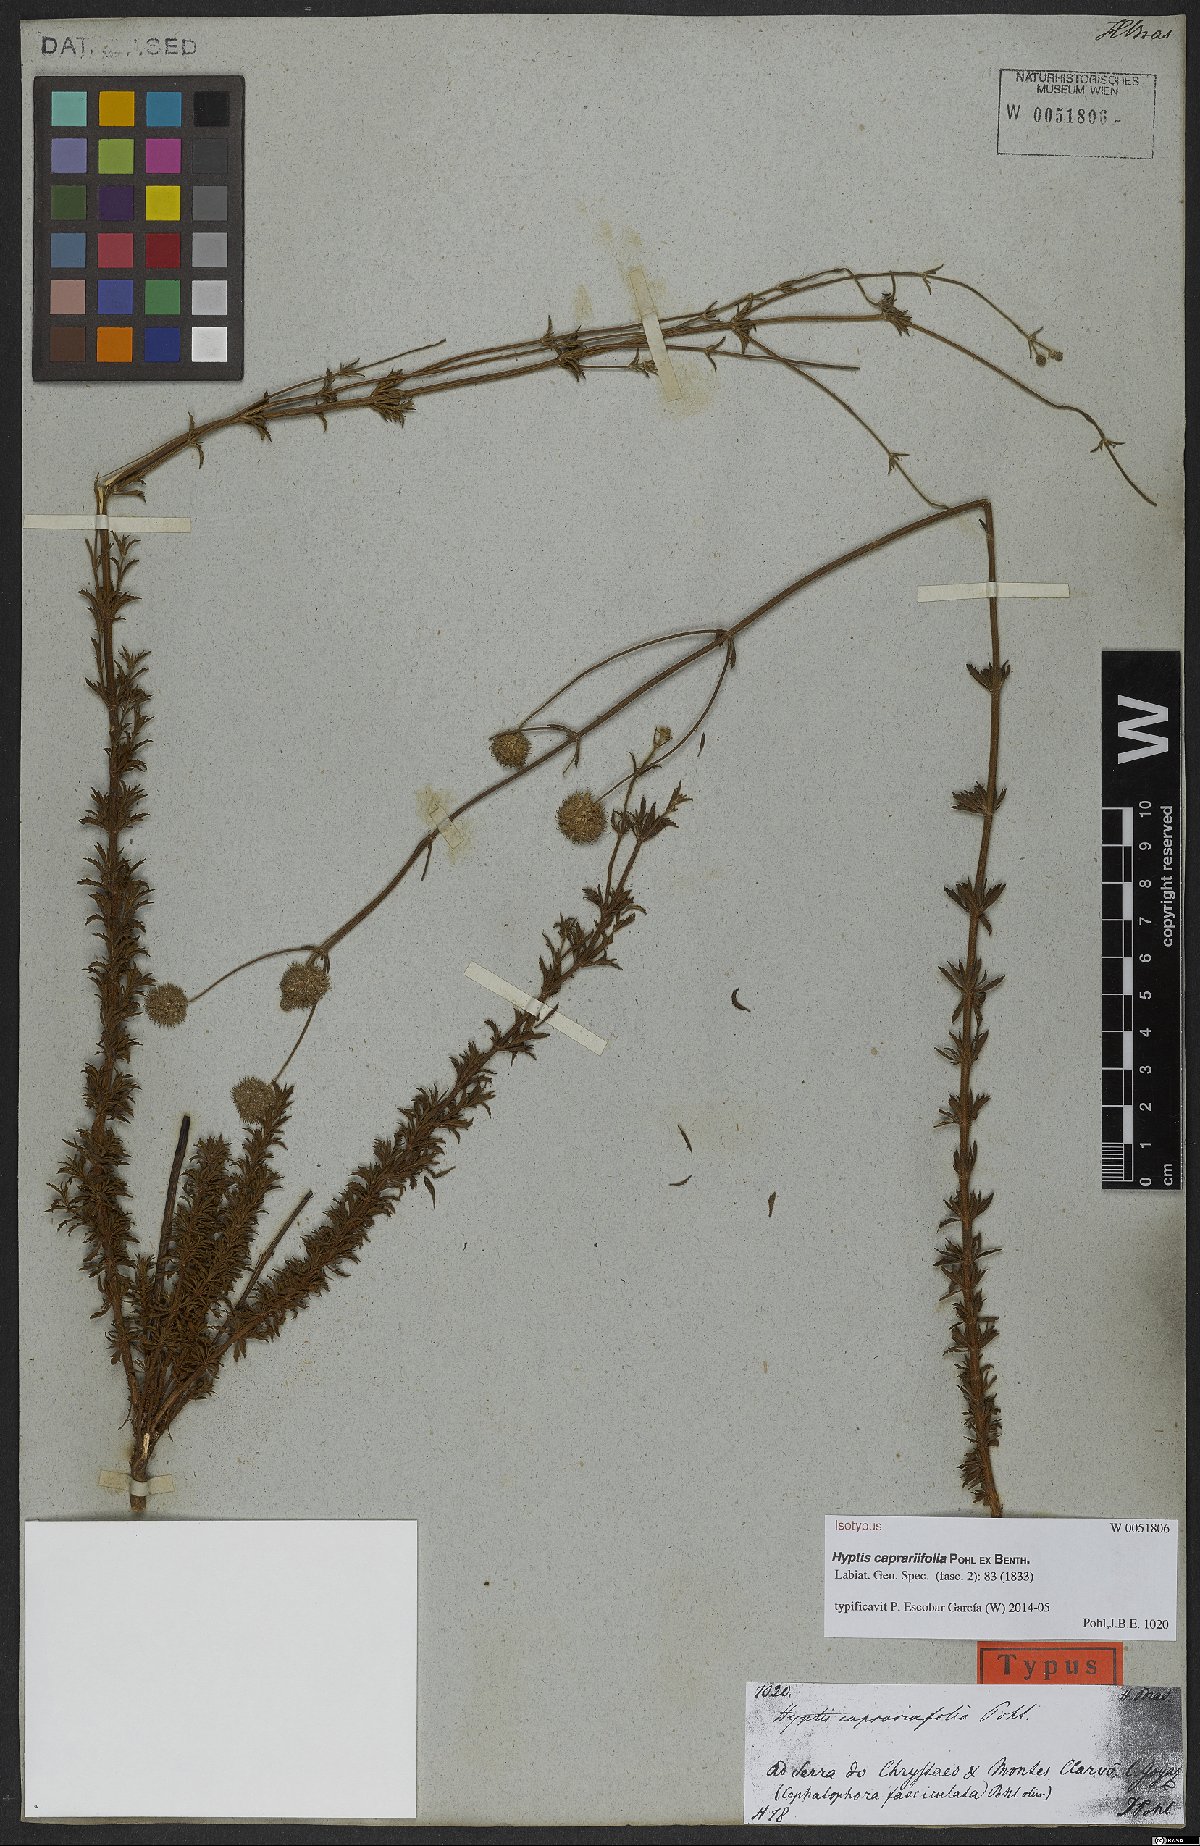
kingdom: Plantae
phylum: Tracheophyta
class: Magnoliopsida
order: Lamiales
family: Lamiaceae
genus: Cyanocephalus
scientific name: Cyanocephalus caprariifolius
